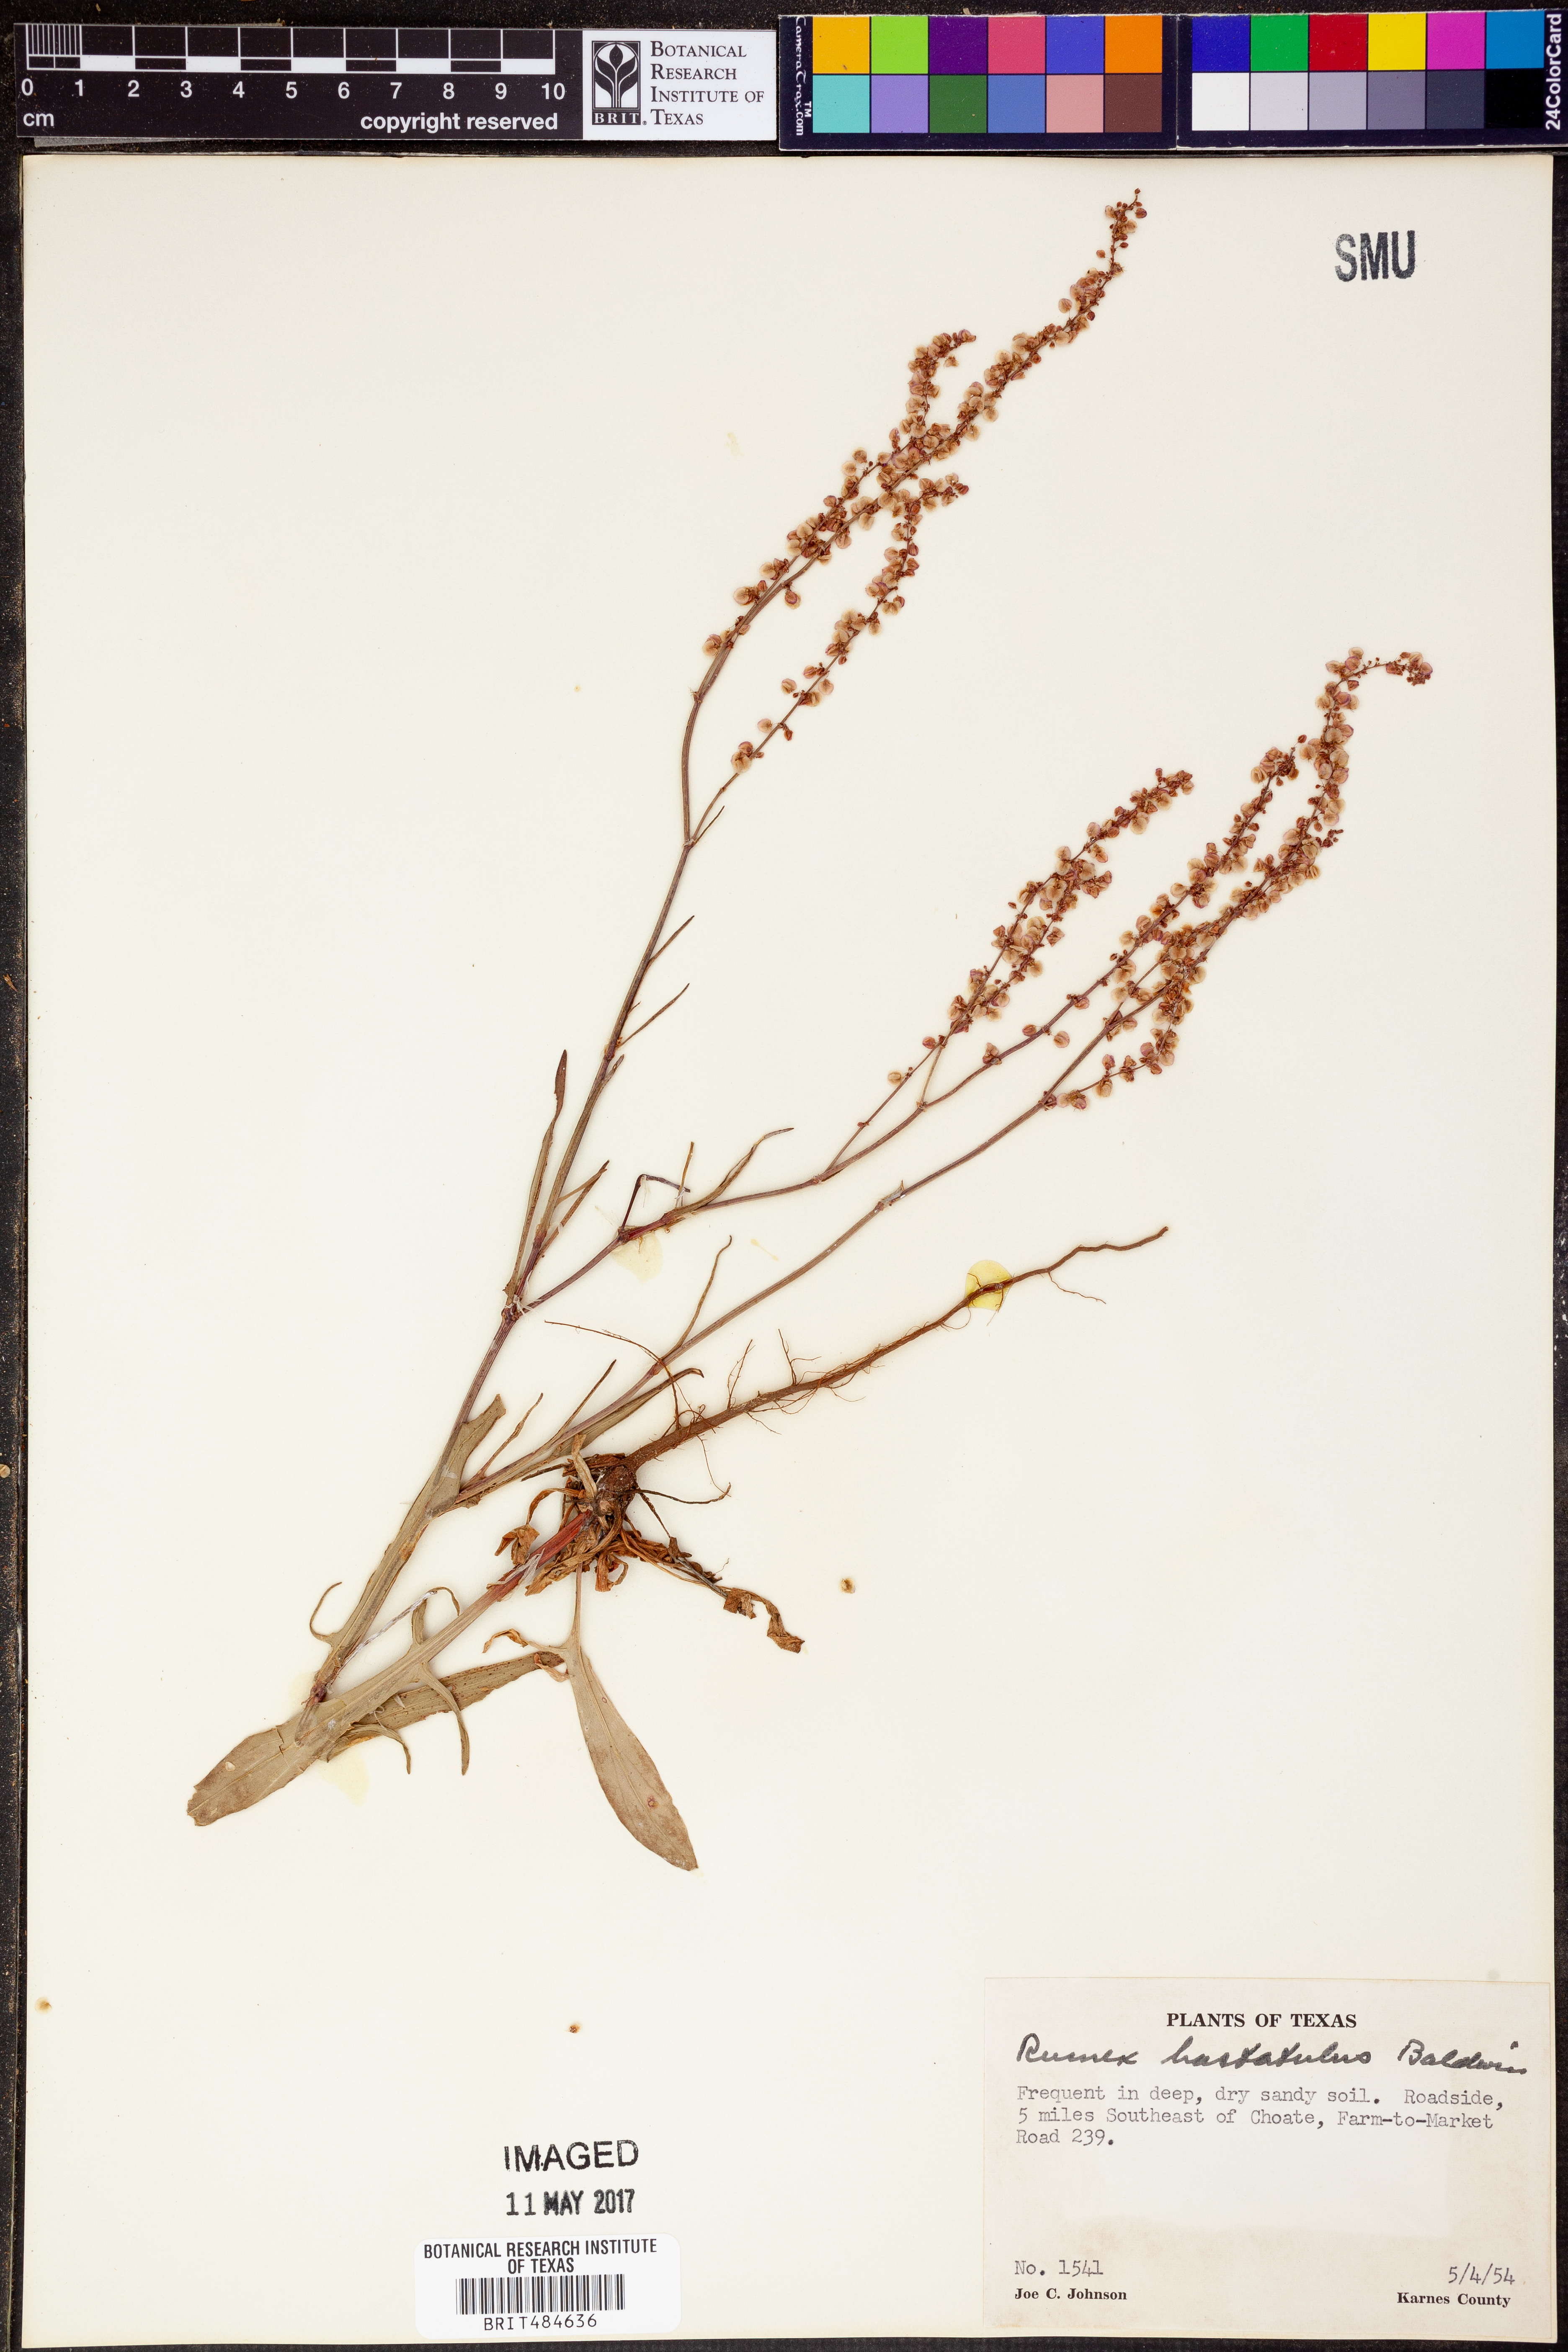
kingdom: Plantae
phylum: Tracheophyta
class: Magnoliopsida
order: Caryophyllales
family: Polygonaceae
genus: Rumex
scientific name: Rumex hastatulus
